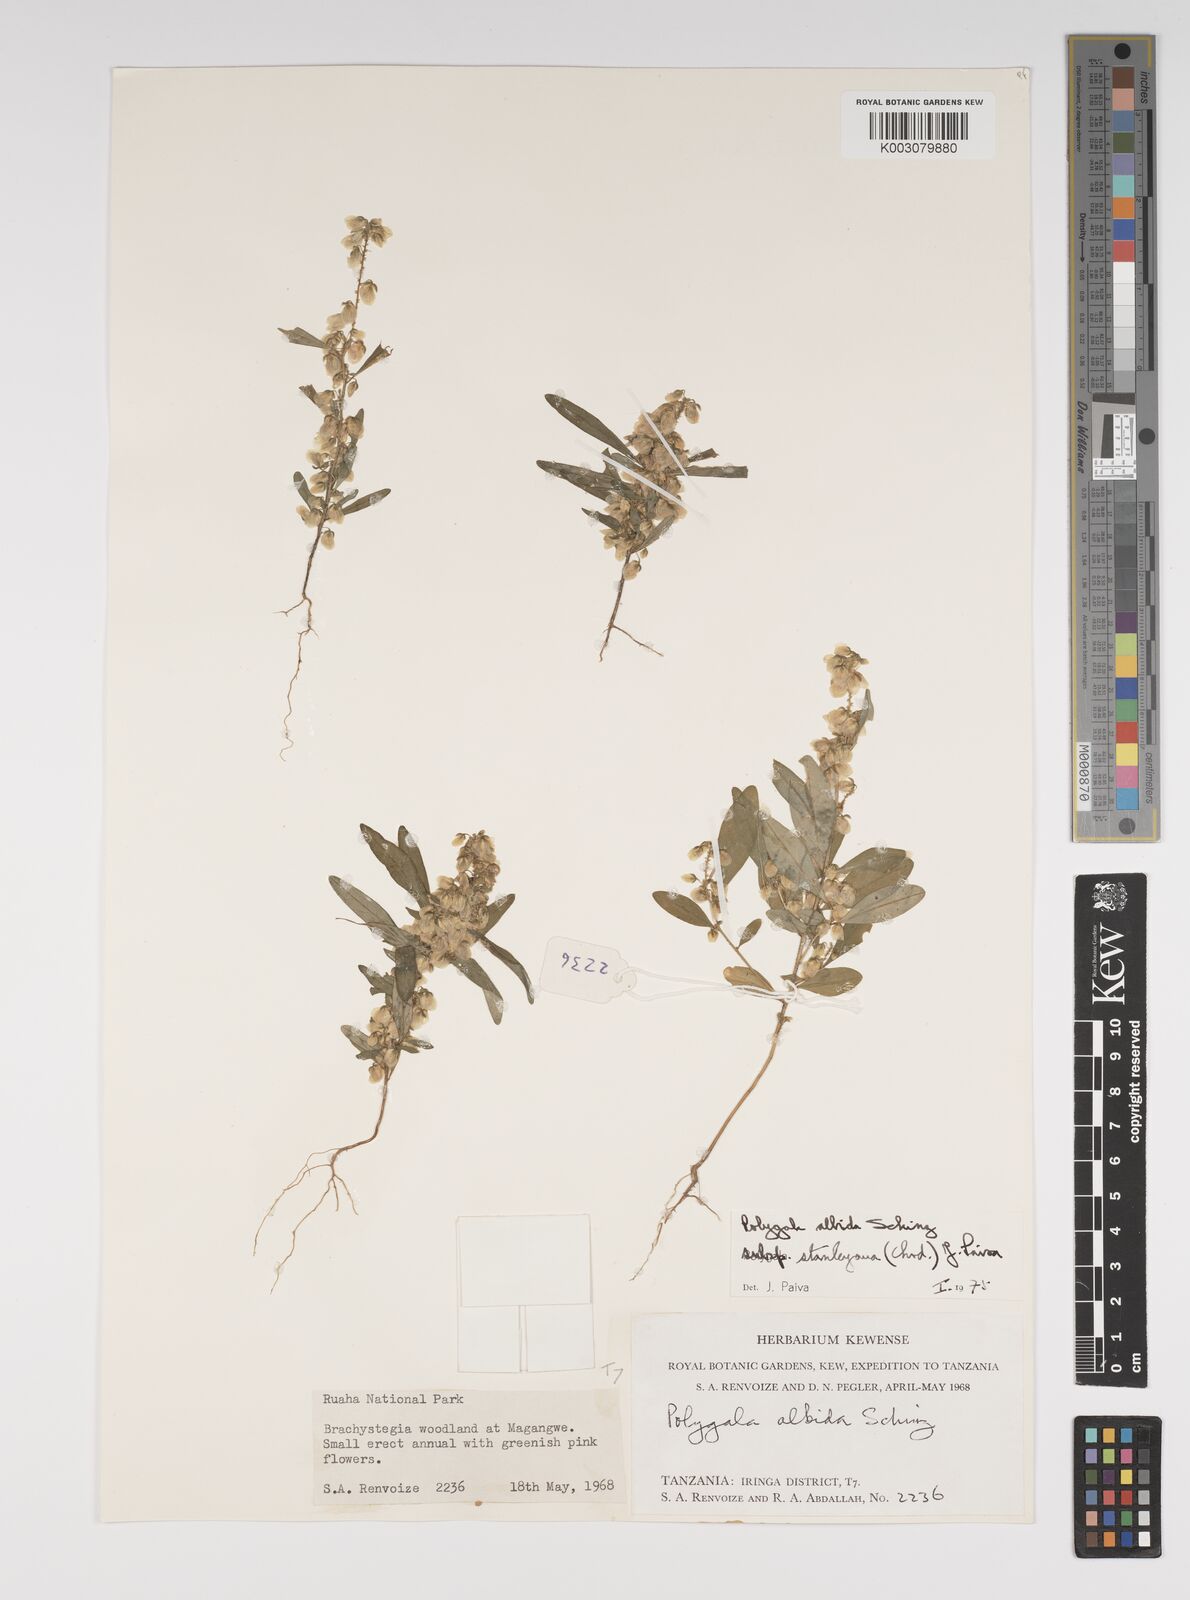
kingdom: Plantae
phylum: Tracheophyta
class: Magnoliopsida
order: Fabales
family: Polygalaceae
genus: Polygala
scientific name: Polygala albida
